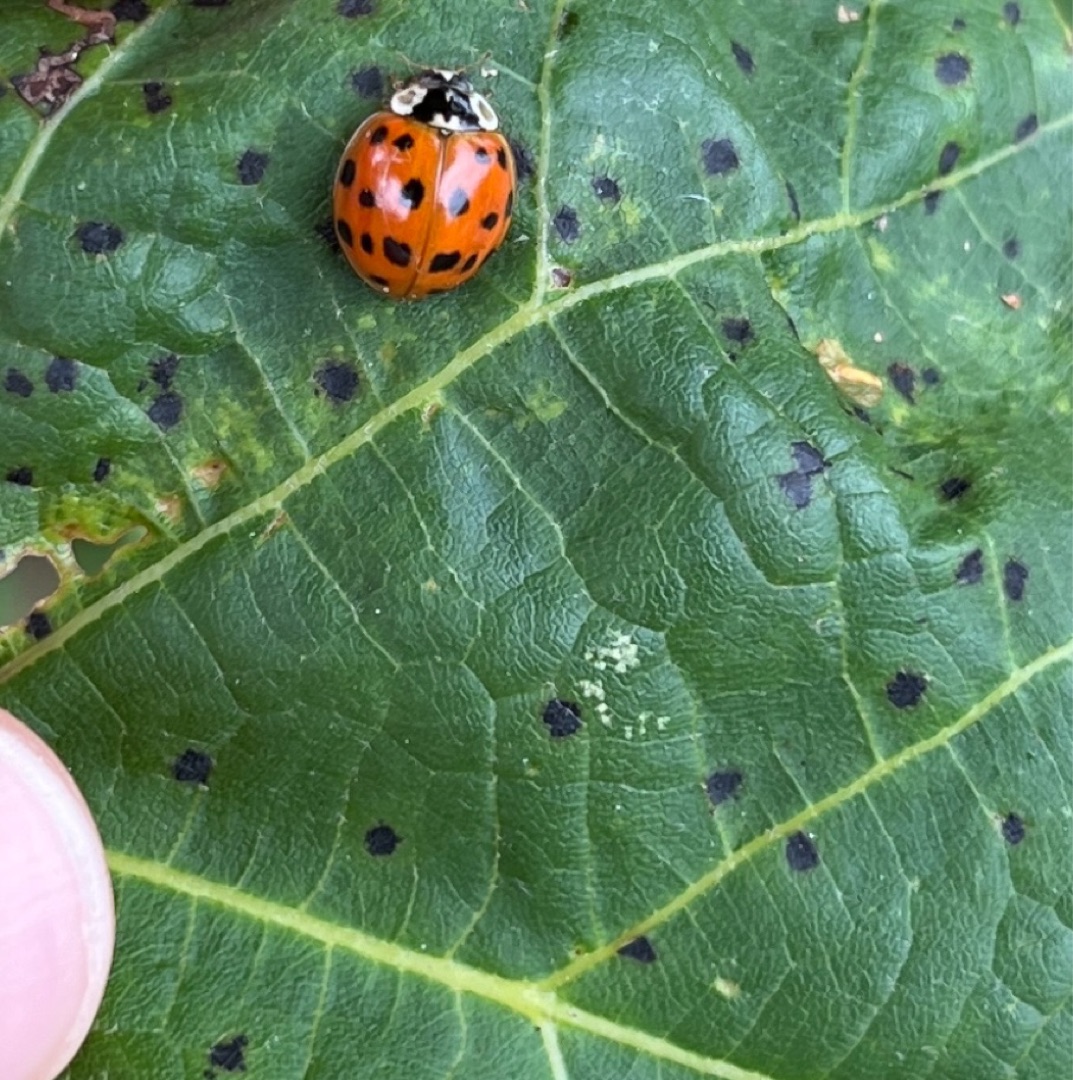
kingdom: Animalia
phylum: Arthropoda
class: Insecta
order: Coleoptera
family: Coccinellidae
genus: Harmonia
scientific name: Harmonia axyridis
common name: Harlekinmariehøne
